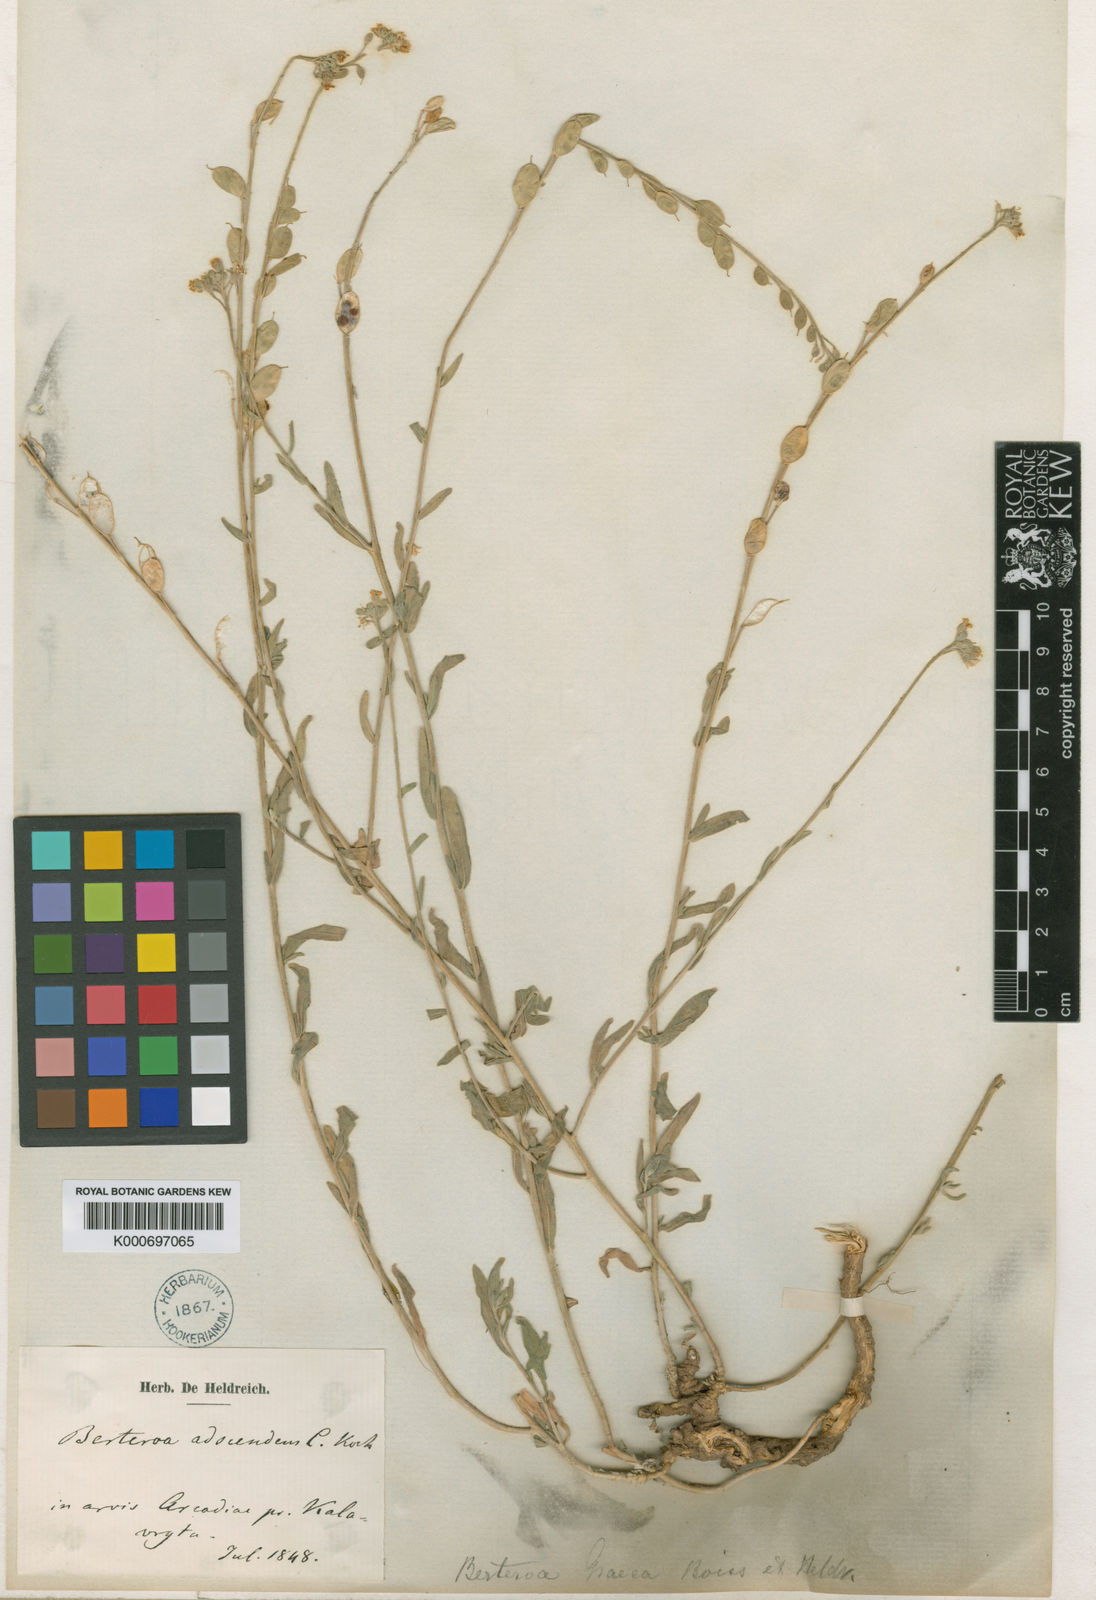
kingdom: Plantae
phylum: Tracheophyta
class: Magnoliopsida
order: Brassicales
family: Brassicaceae
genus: Berteroa
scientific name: Berteroa obliqua
